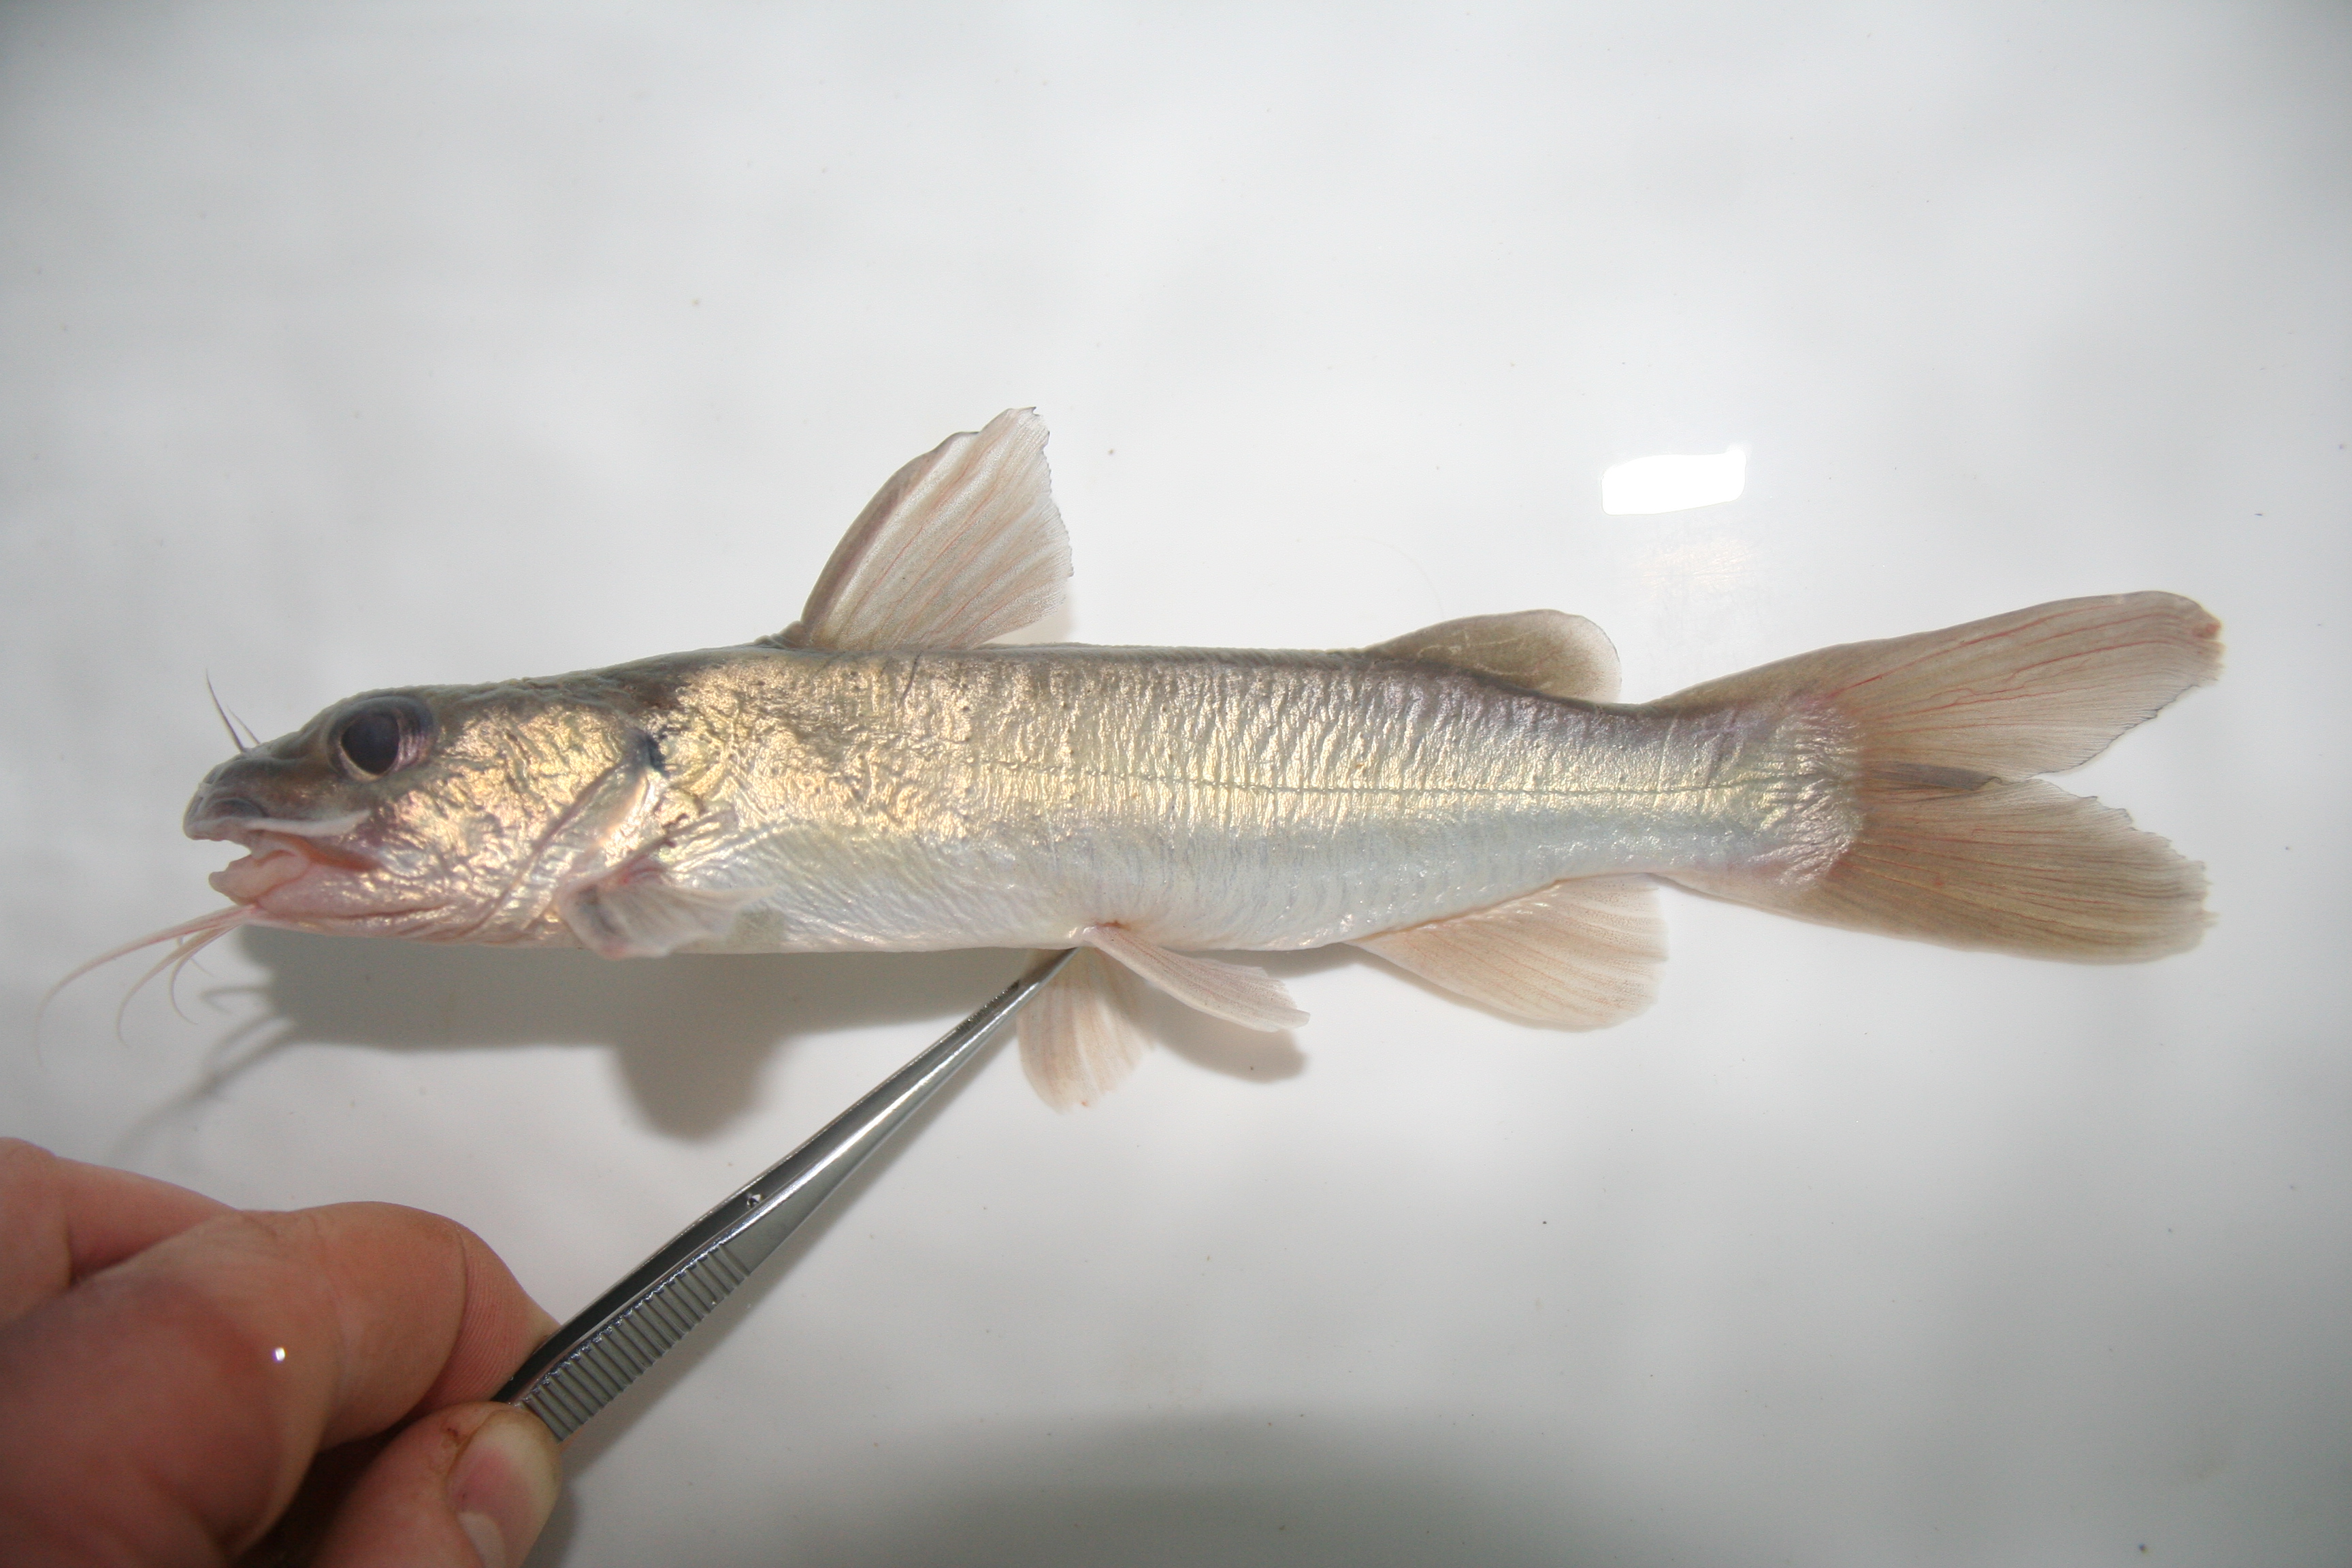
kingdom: Animalia
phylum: Chordata
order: Siluriformes
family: Claroteidae
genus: Chrysichthys
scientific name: Chrysichthys
